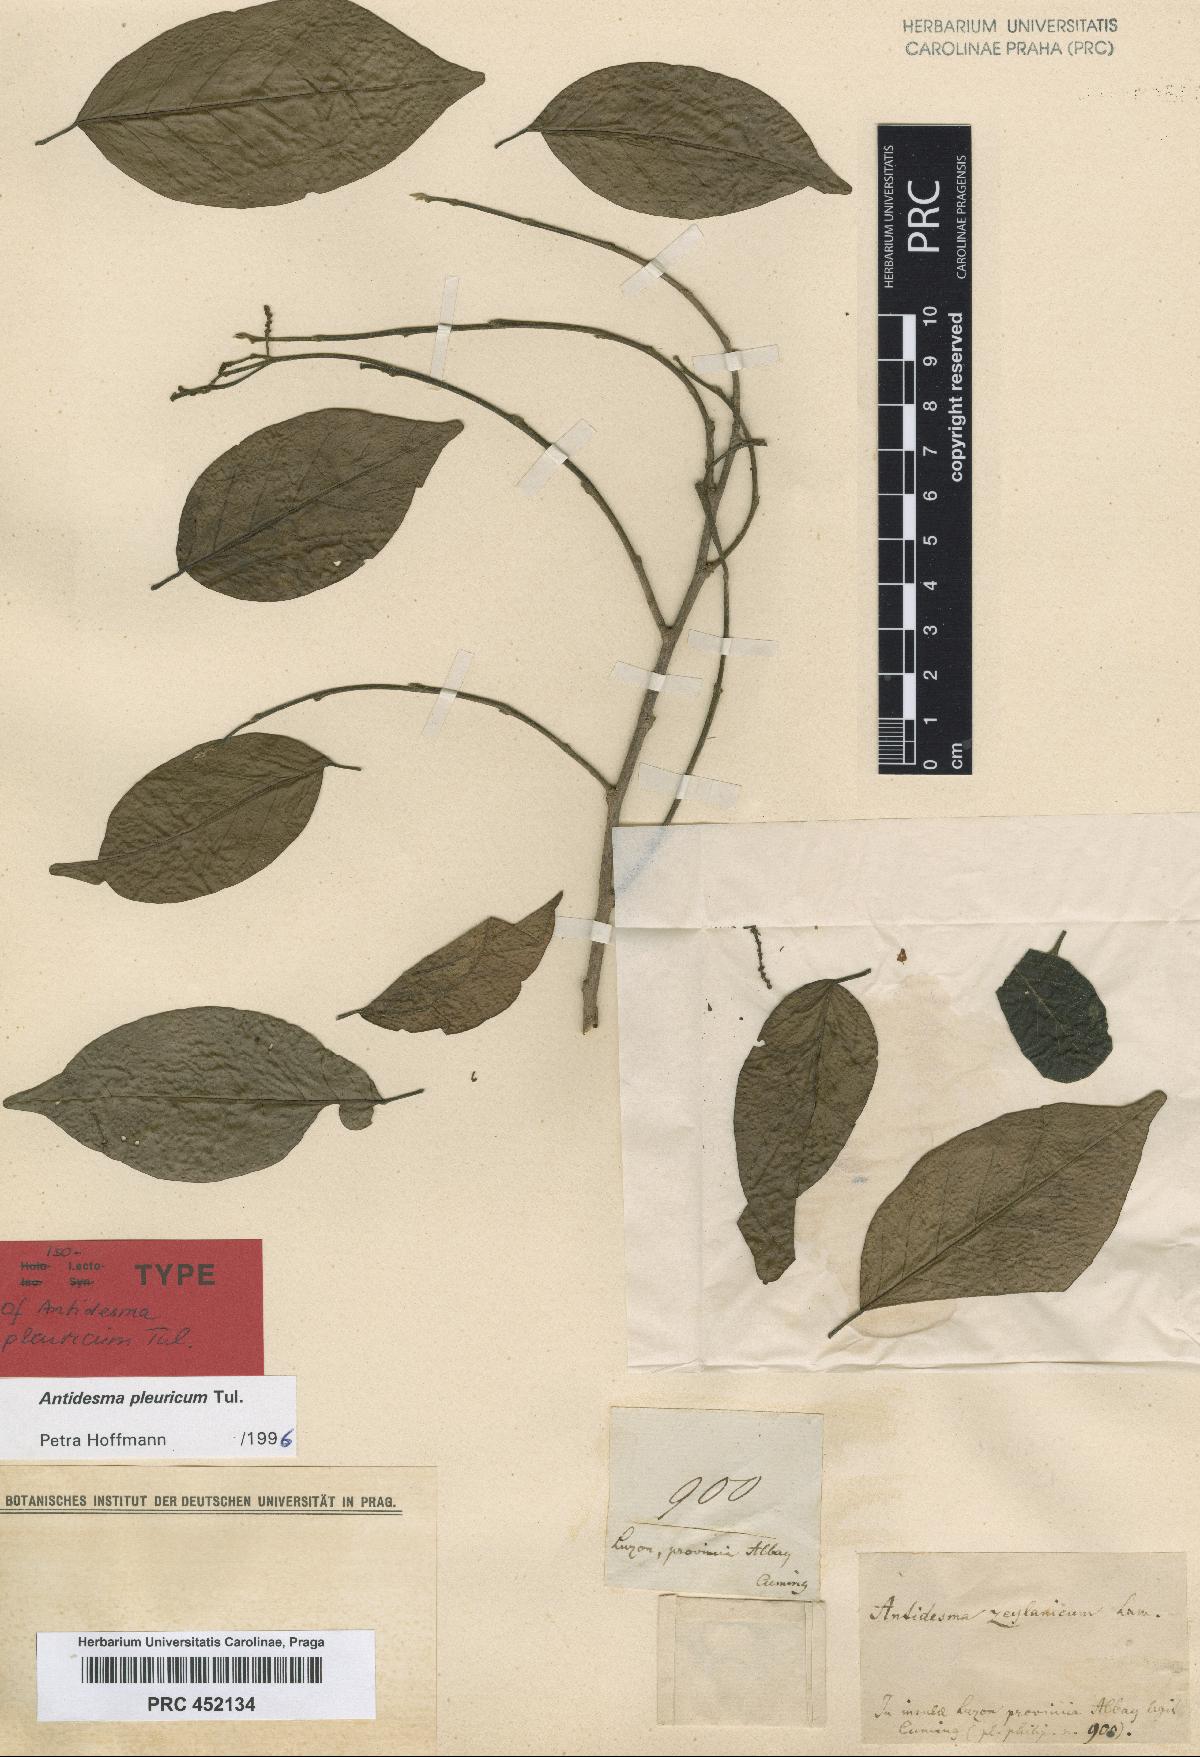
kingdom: Plantae
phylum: Tracheophyta
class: Magnoliopsida
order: Malpighiales
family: Phyllanthaceae
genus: Antidesma
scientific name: Antidesma pleuricum
